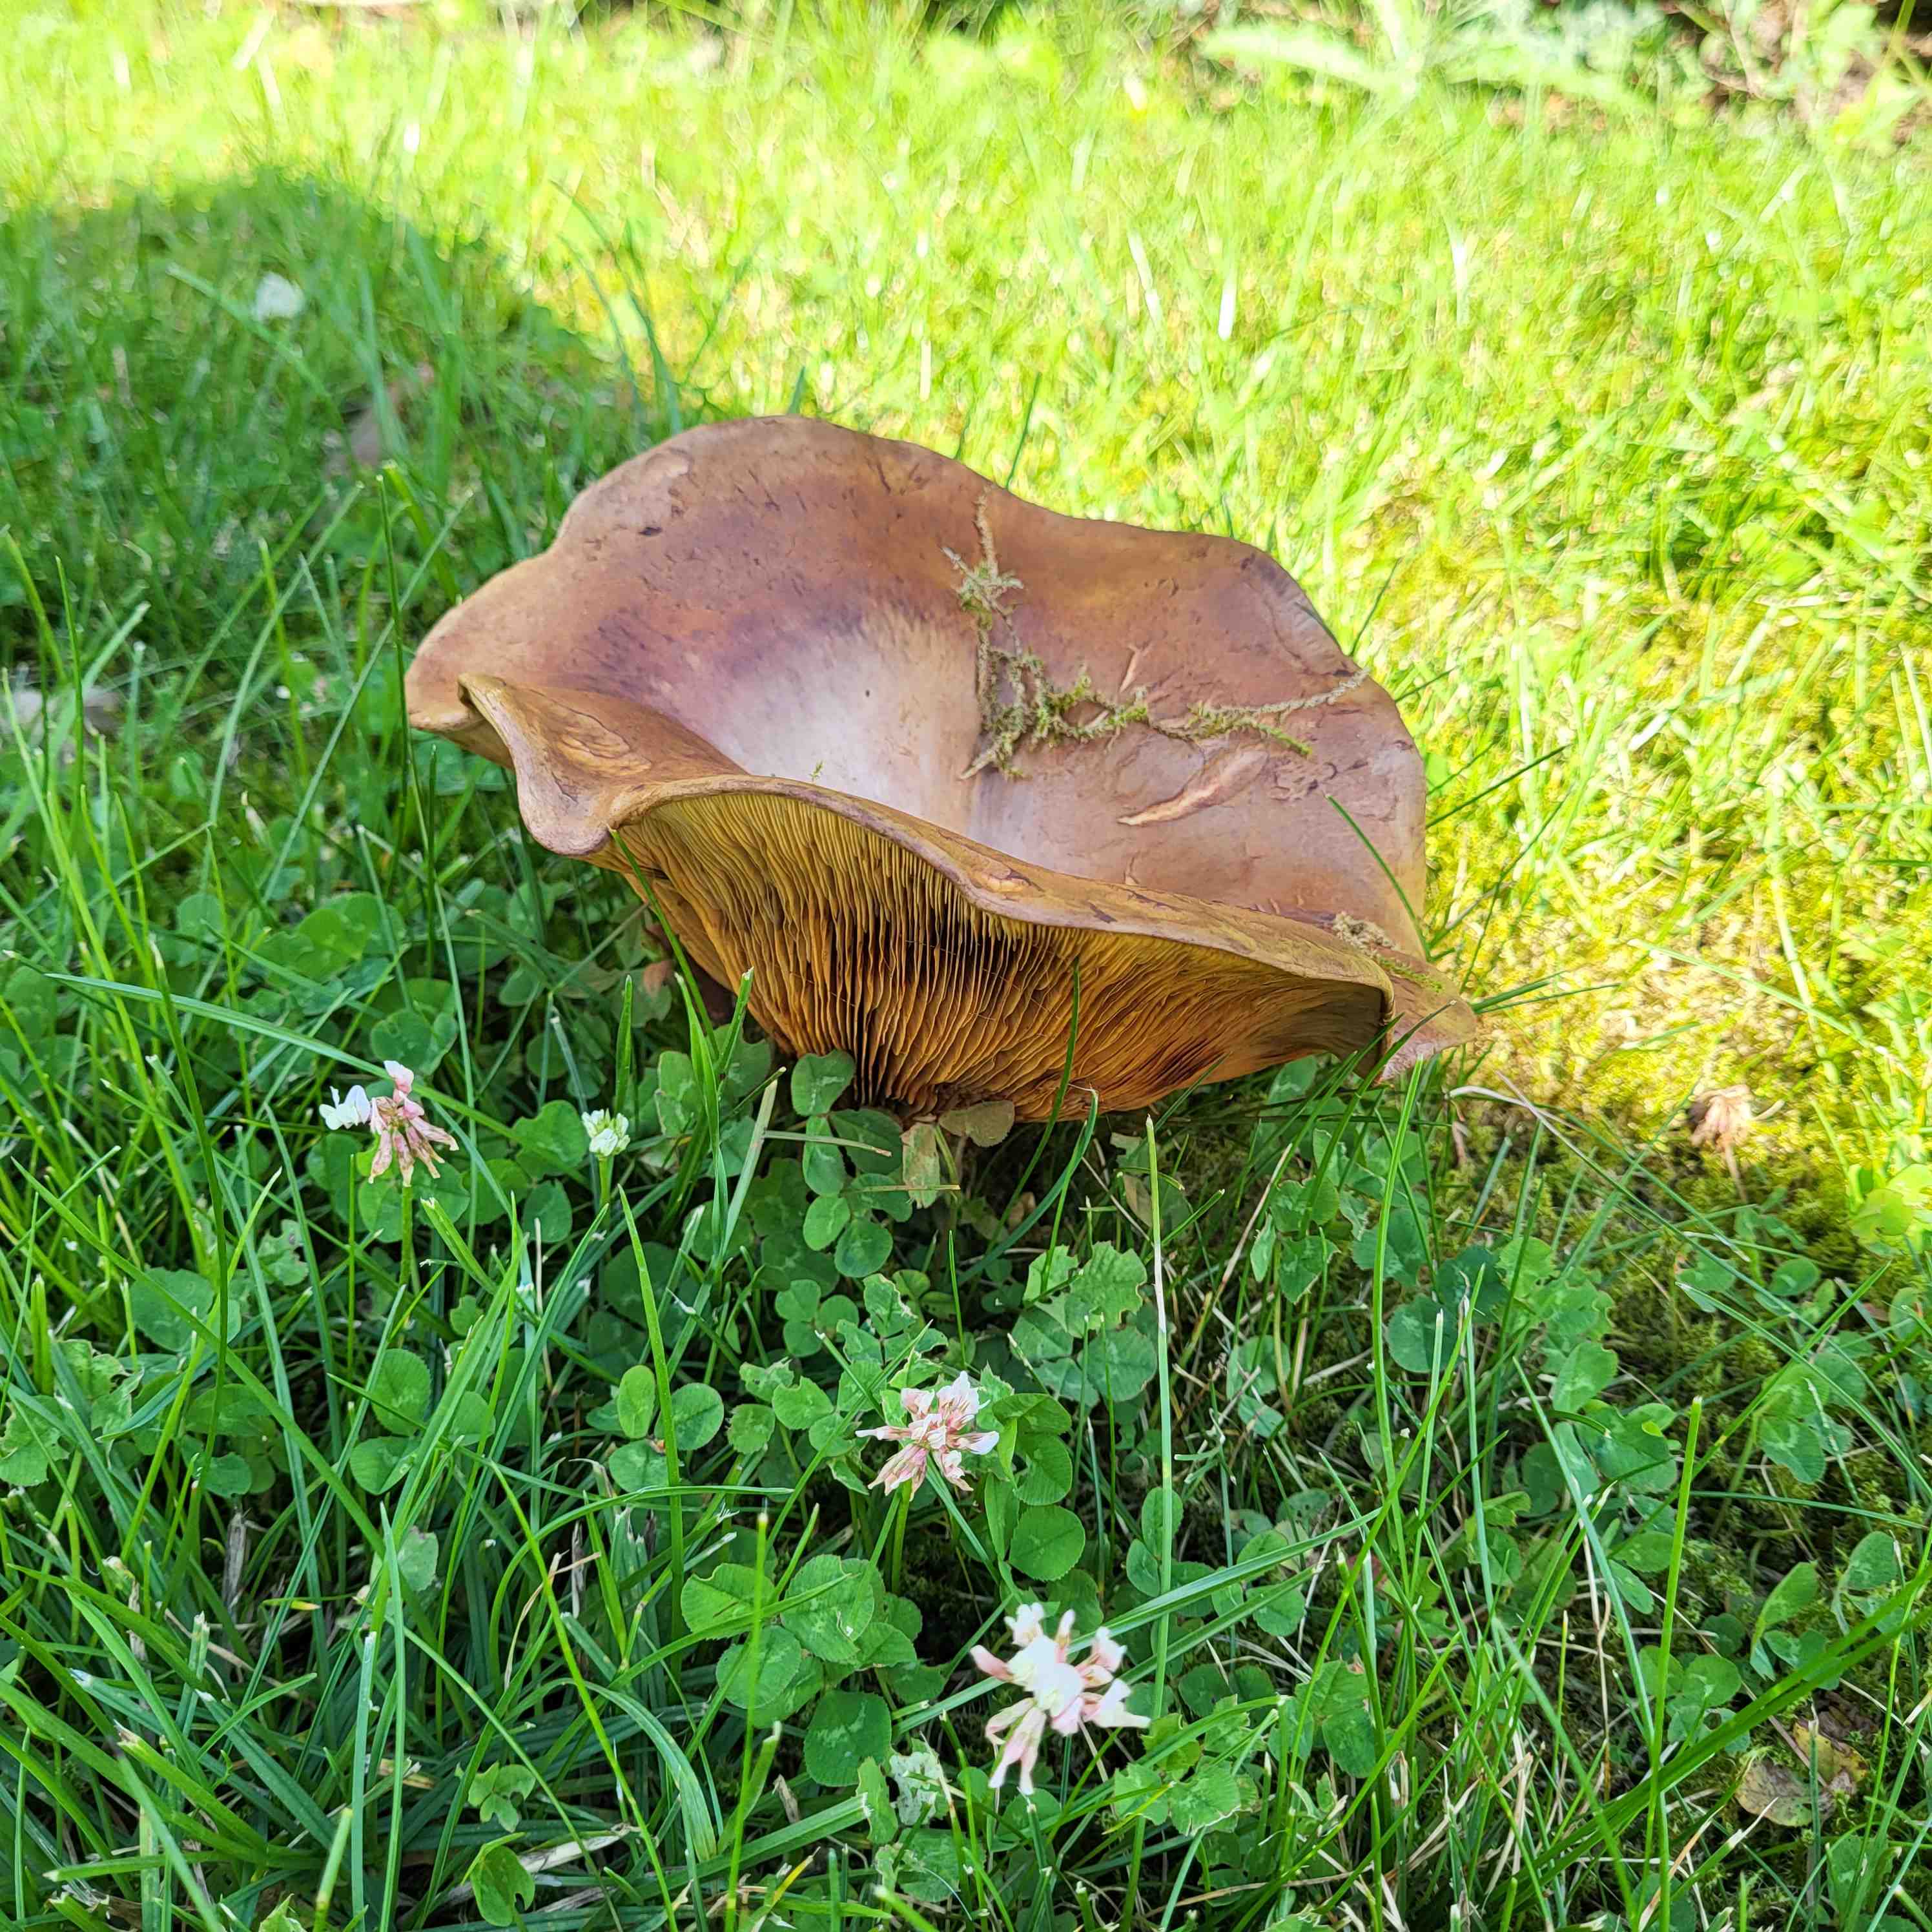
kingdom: Fungi
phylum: Basidiomycota
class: Agaricomycetes
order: Boletales
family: Paxillaceae
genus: Paxillus
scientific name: Paxillus
